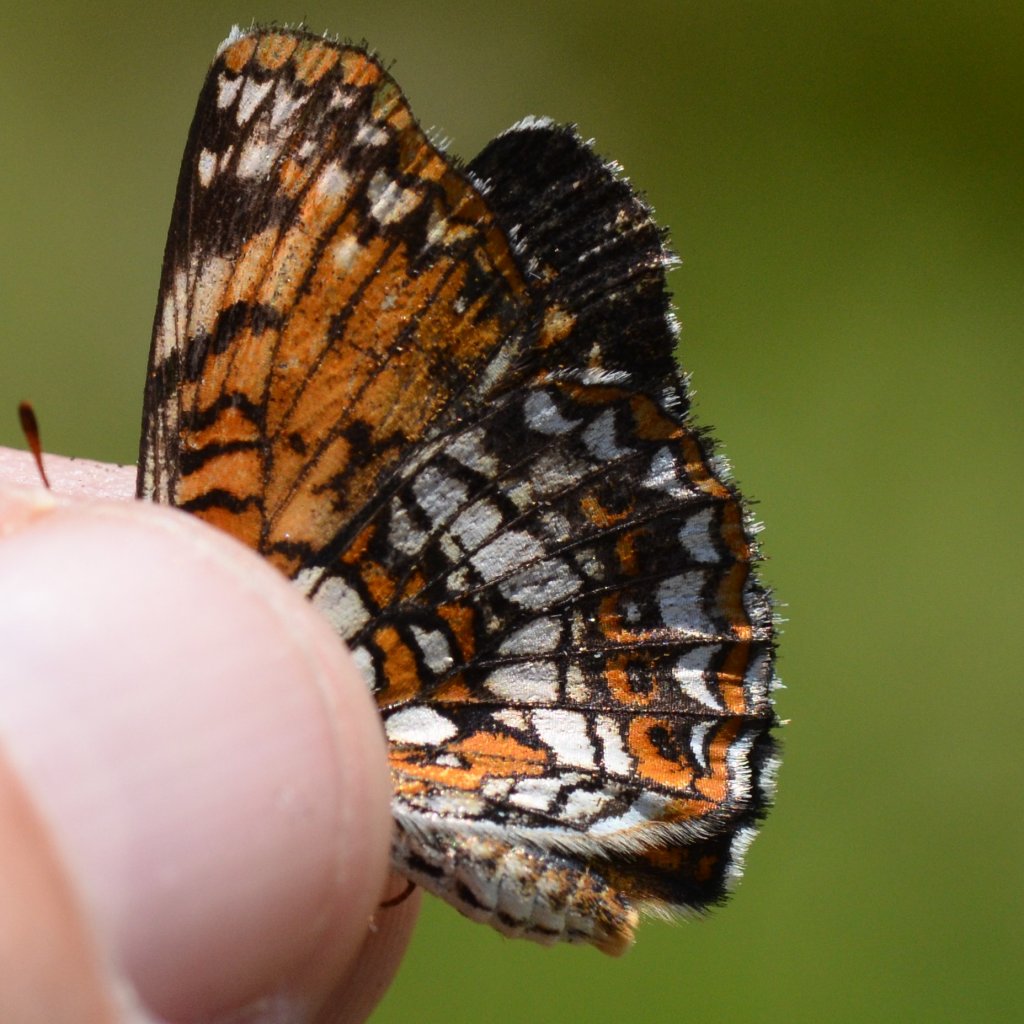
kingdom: Animalia
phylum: Arthropoda
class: Insecta
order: Lepidoptera
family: Nymphalidae
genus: Chlosyne
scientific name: Chlosyne harrisii
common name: Harris's Checkerspot
